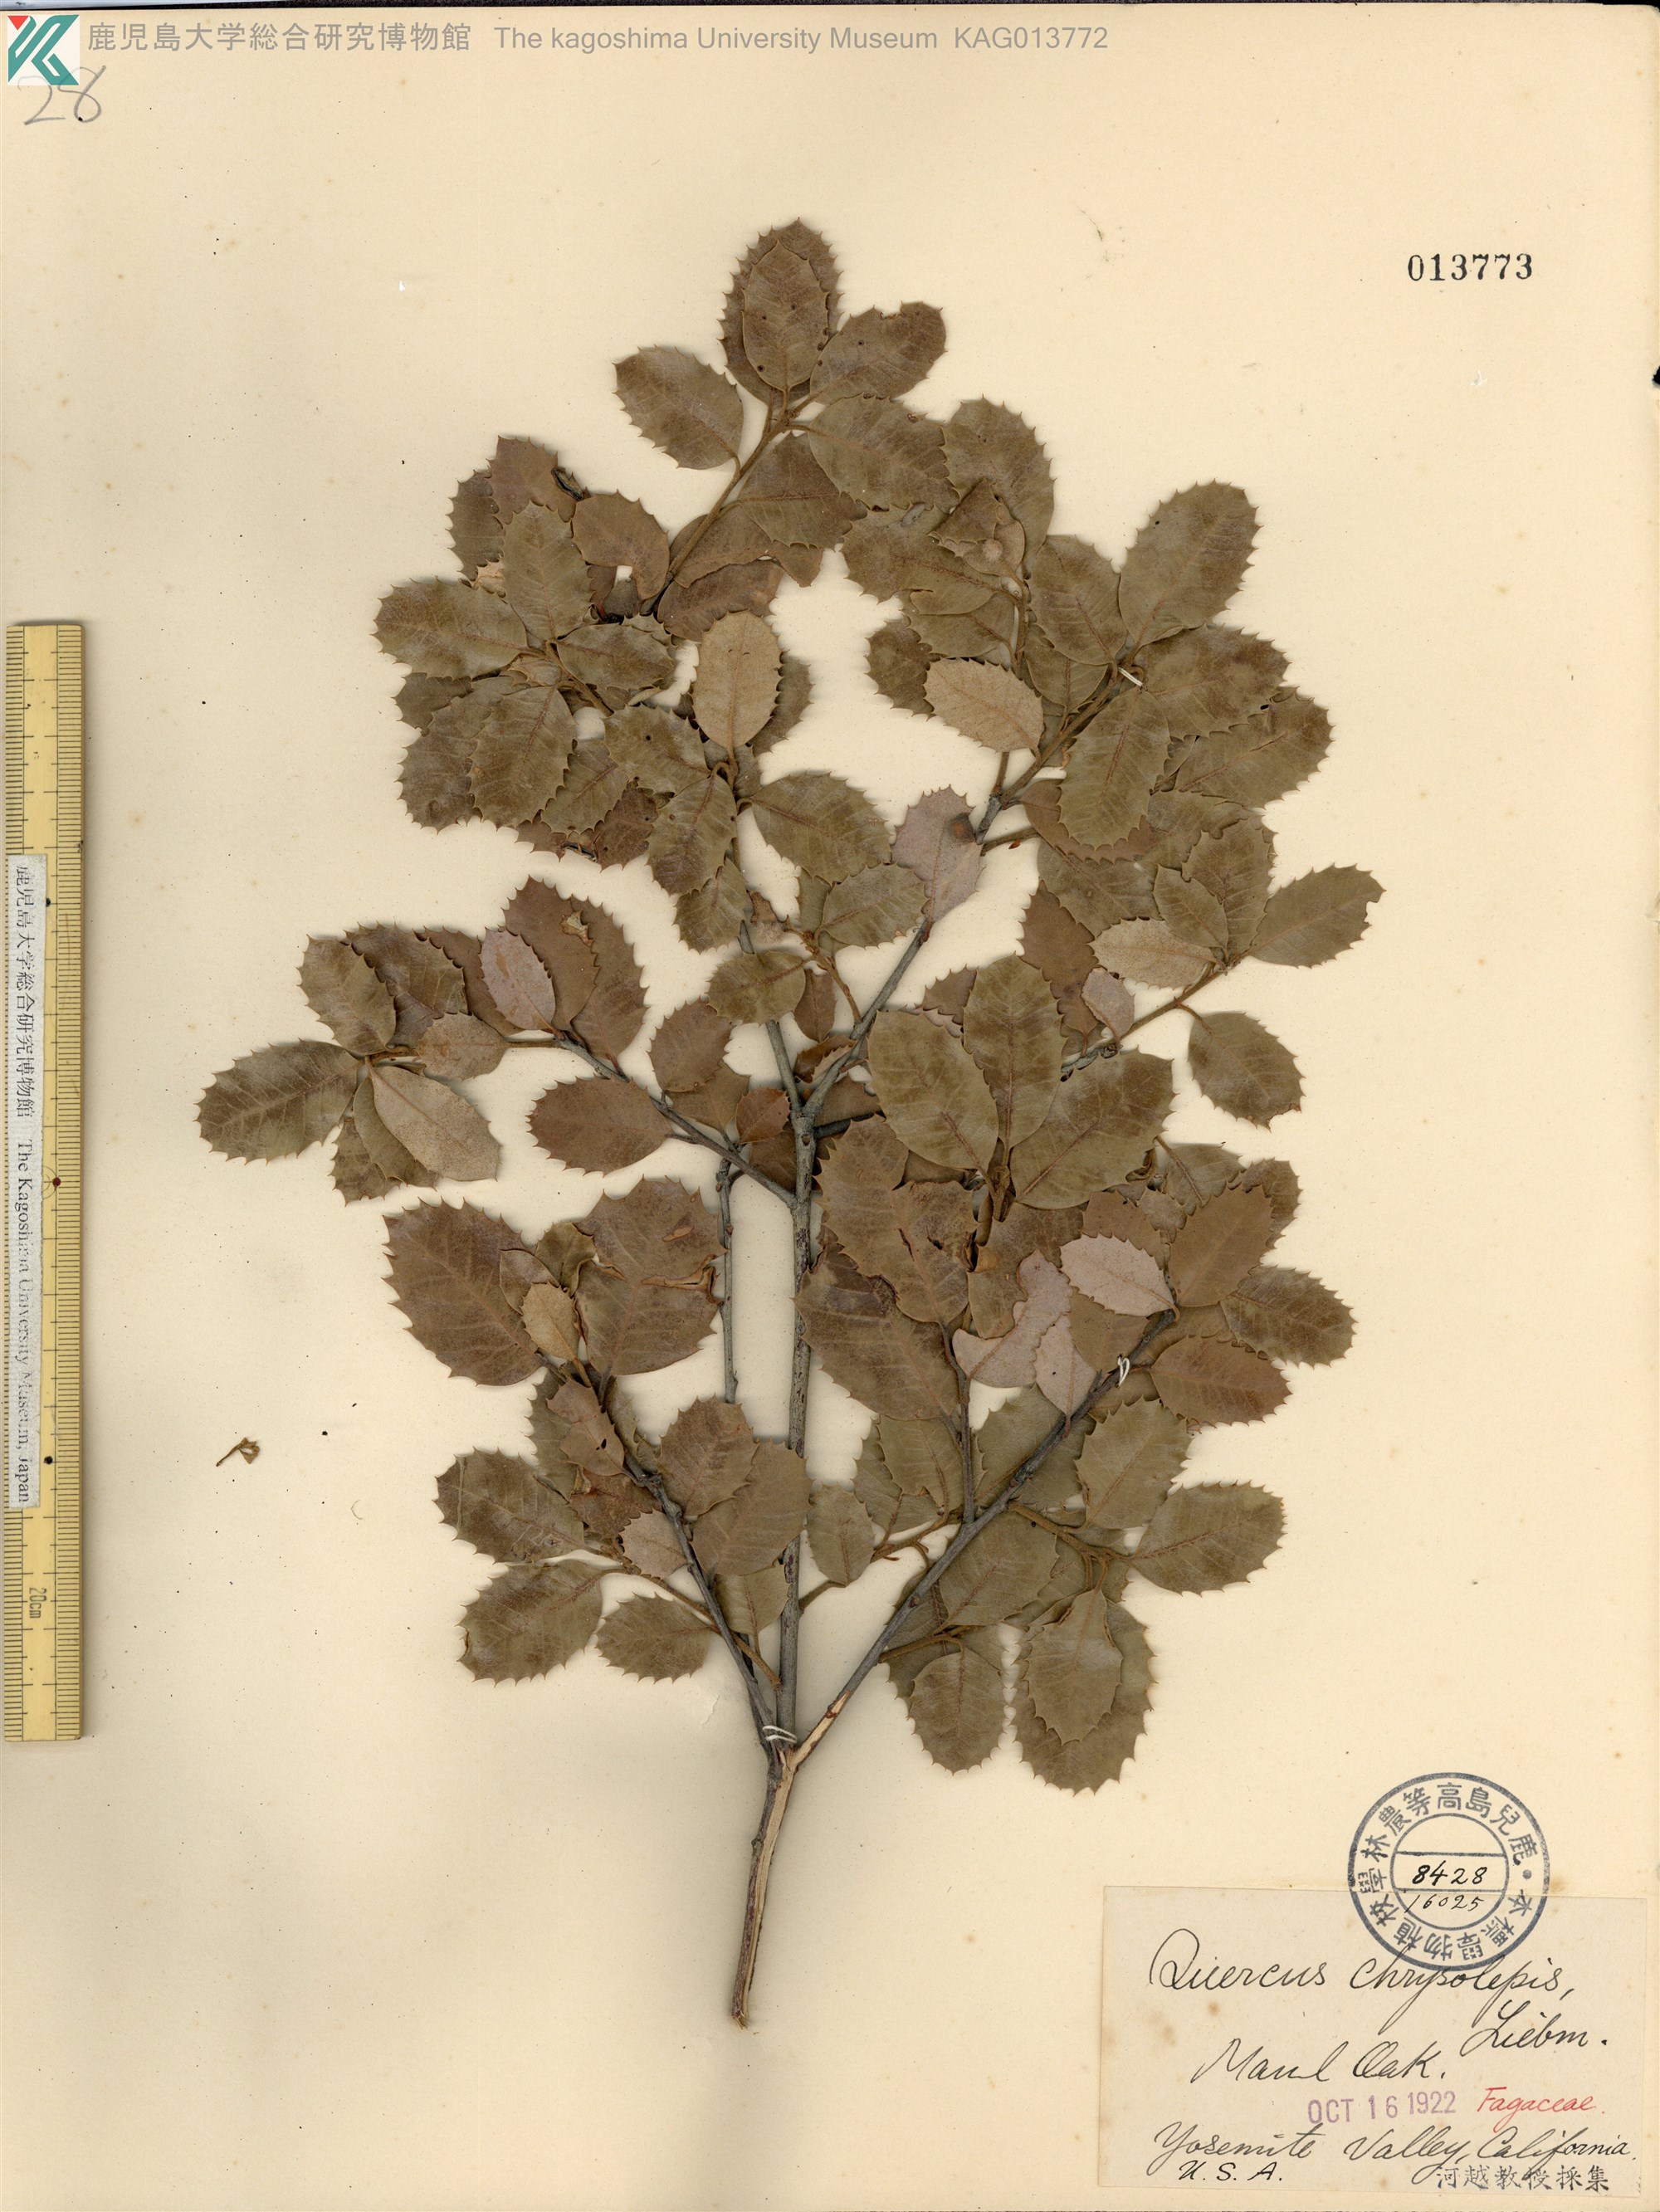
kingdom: Plantae
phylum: Tracheophyta
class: Magnoliopsida
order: Fagales
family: Fagaceae
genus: Quercus
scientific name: Quercus chrysolepis
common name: Canyon live oak
